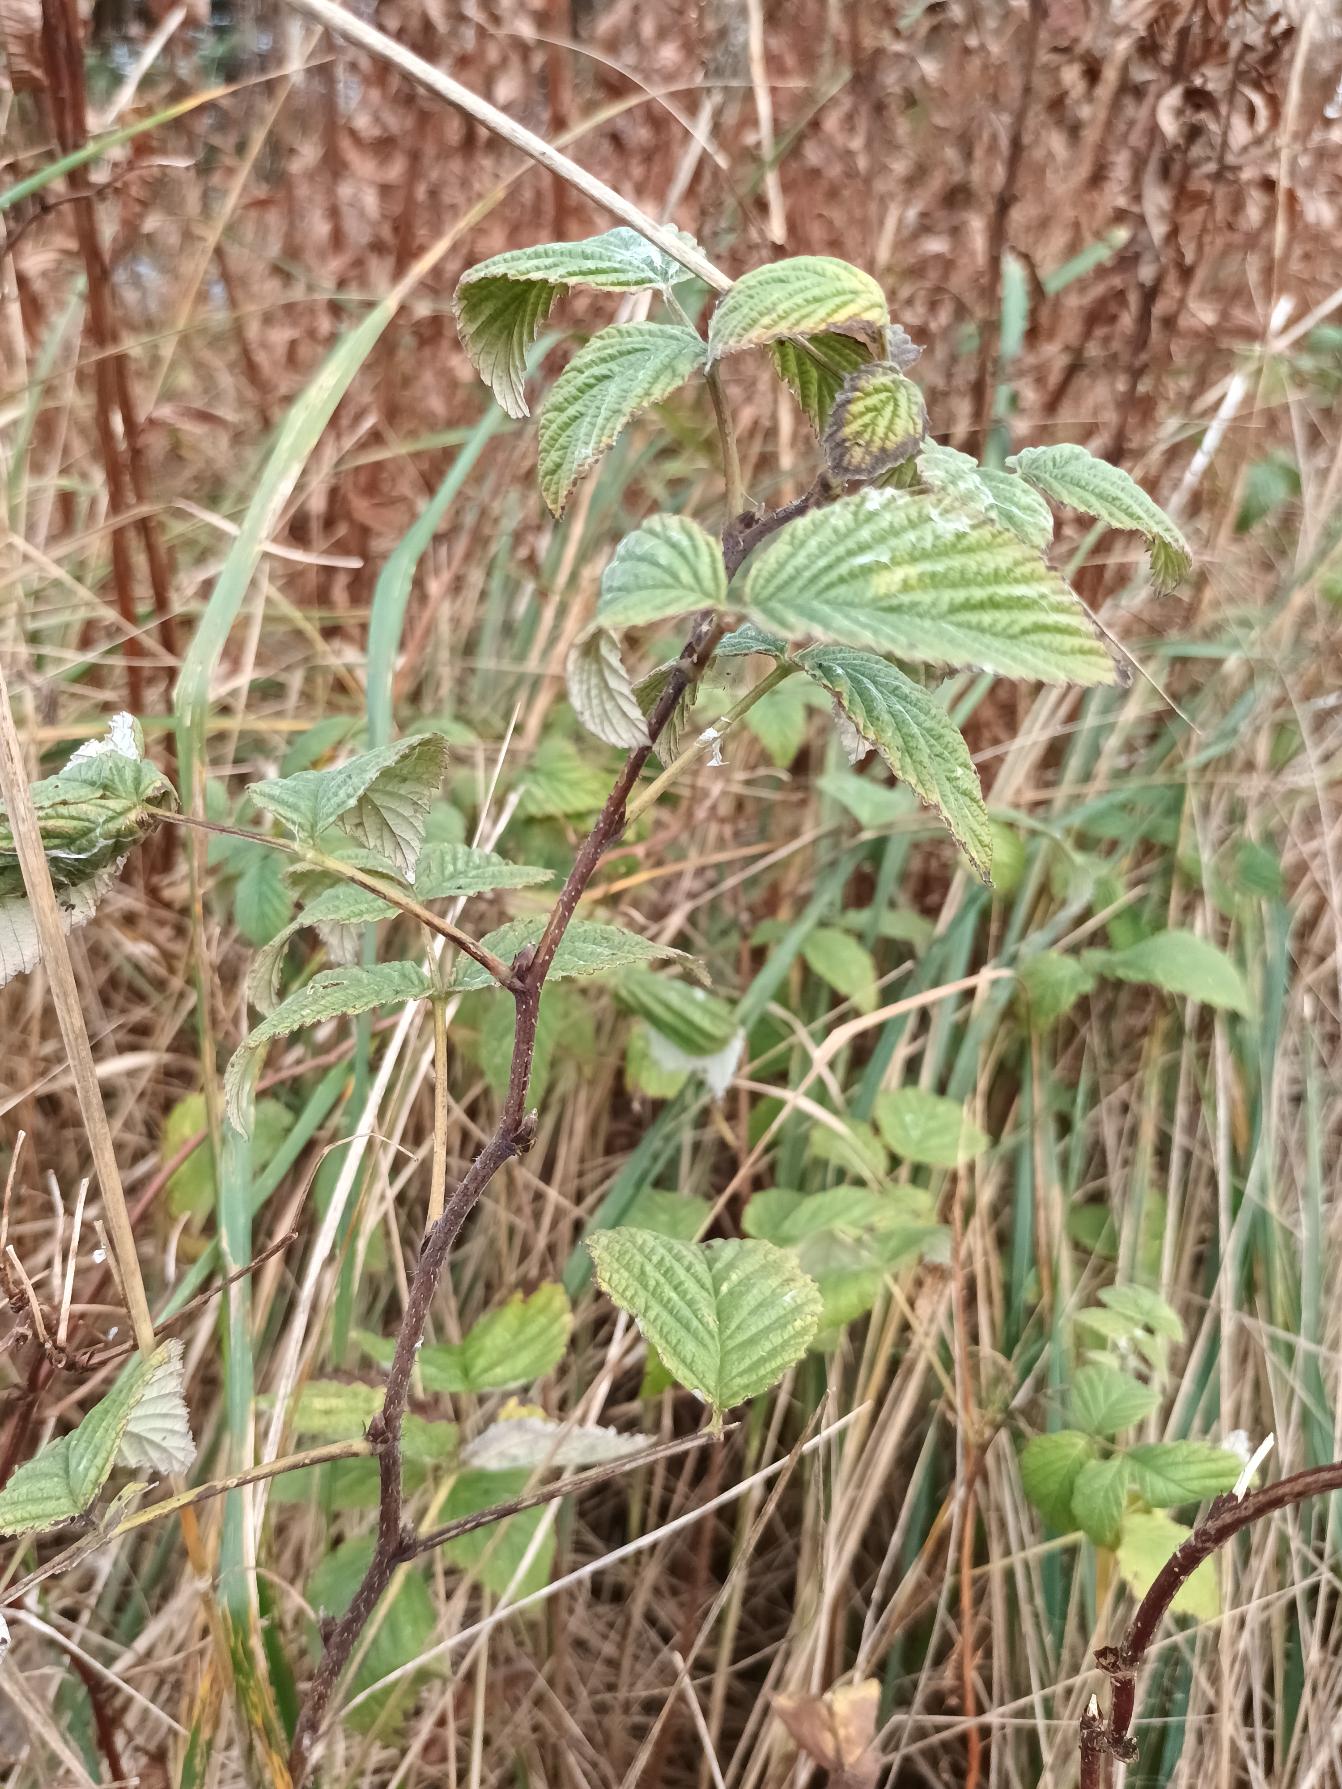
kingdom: Plantae
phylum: Tracheophyta
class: Magnoliopsida
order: Rosales
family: Rosaceae
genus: Rubus
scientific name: Rubus idaeus
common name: Hindbær
